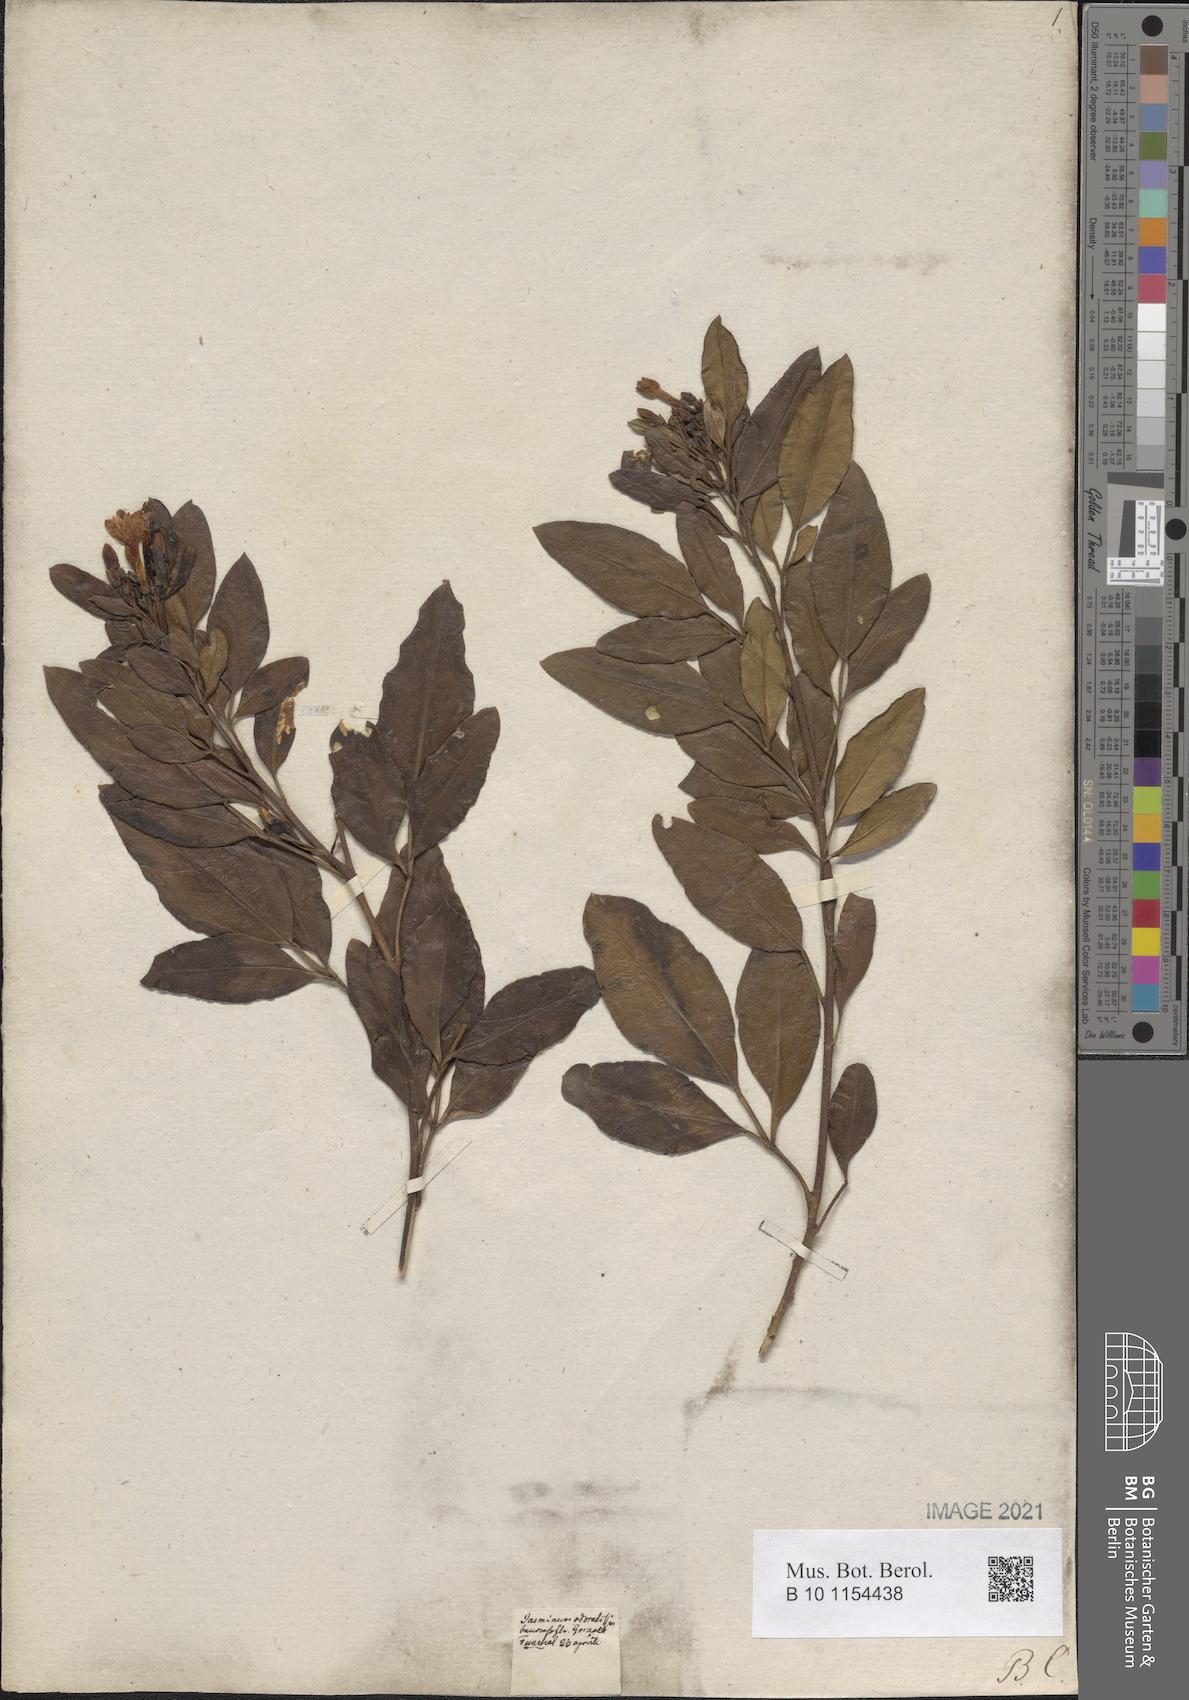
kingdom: Plantae
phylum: Tracheophyta
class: Magnoliopsida
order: Lamiales
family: Oleaceae
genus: Chrysojasminum
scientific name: Chrysojasminum odoratissimum
